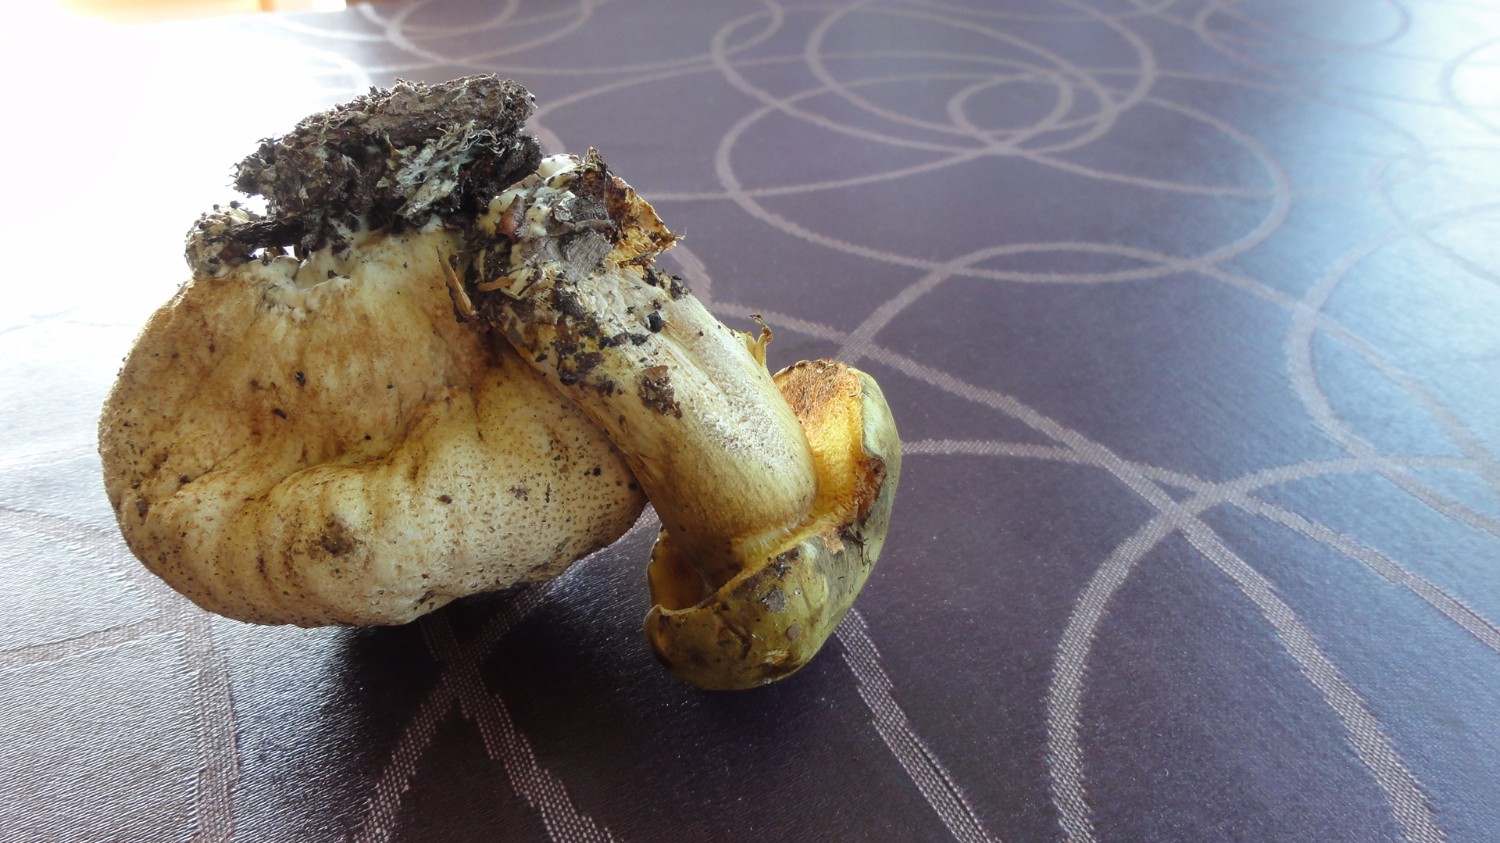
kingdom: Fungi
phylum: Basidiomycota
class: Agaricomycetes
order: Boletales
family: Boletaceae
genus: Pseudoboletus
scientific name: Pseudoboletus parasiticus
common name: snyltende rørhat
